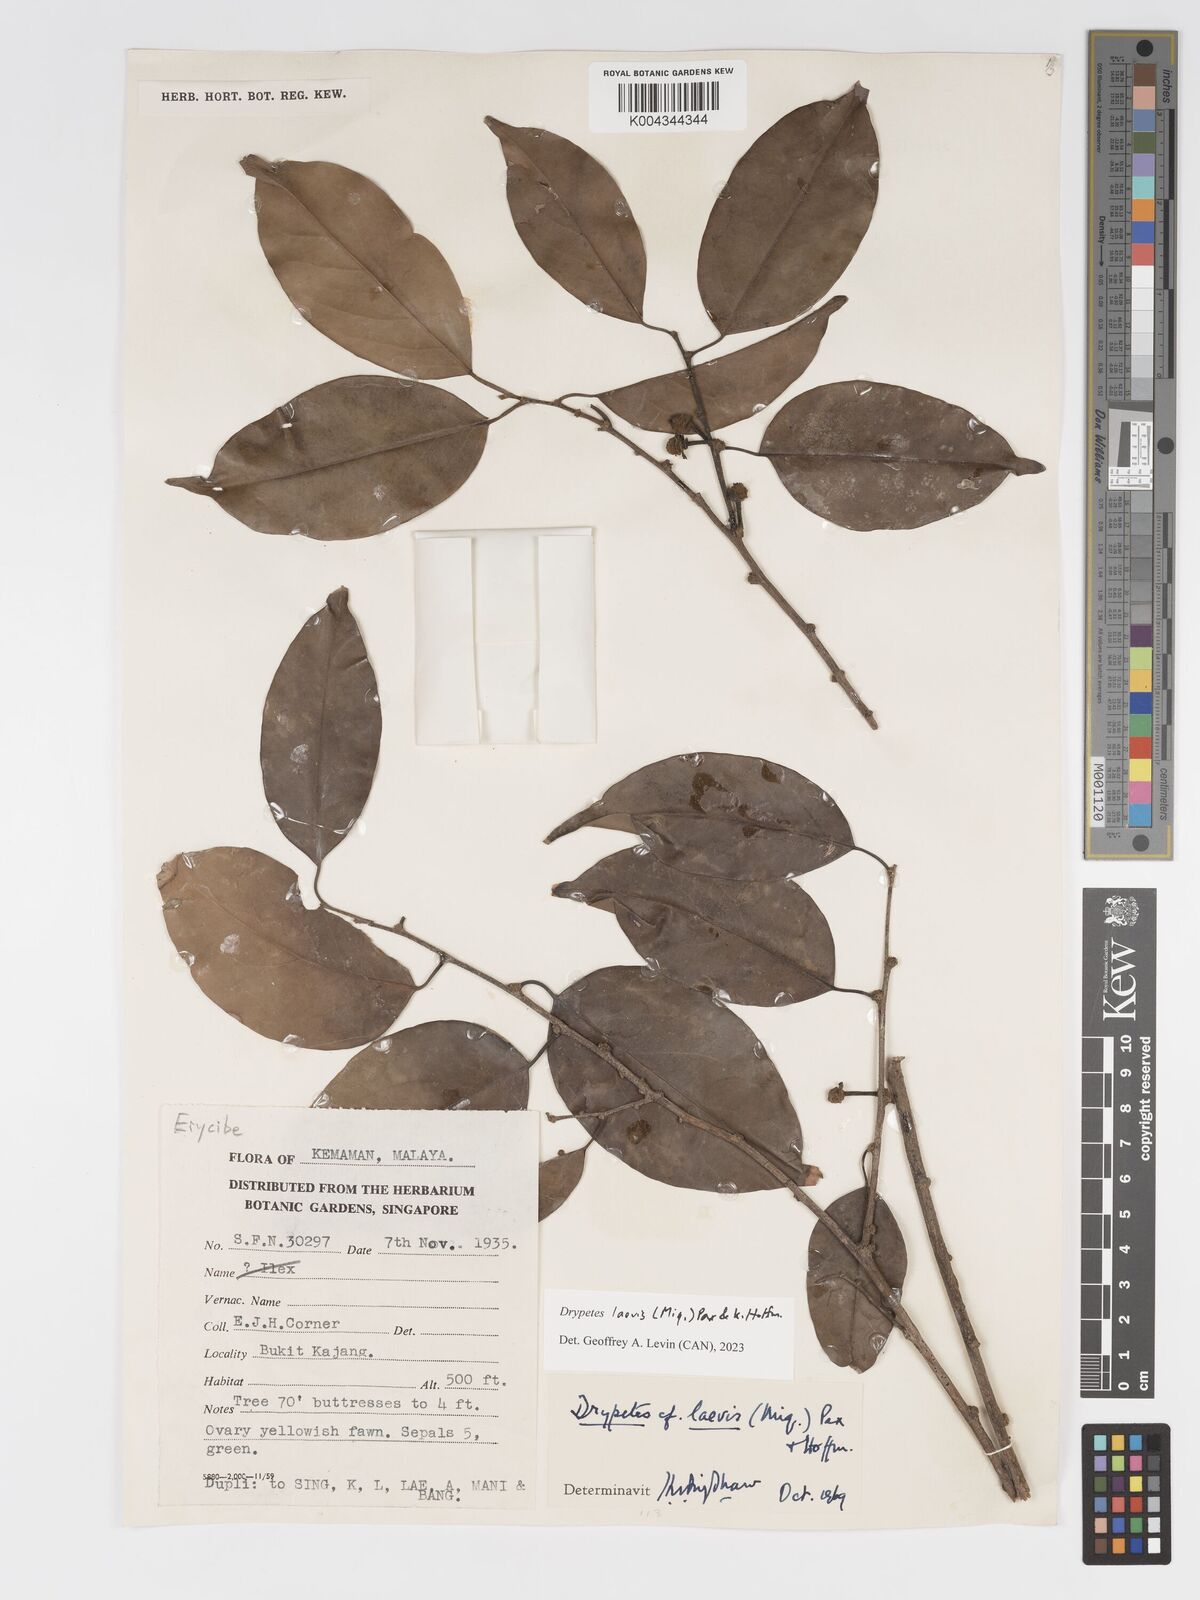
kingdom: Plantae
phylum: Tracheophyta
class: Magnoliopsida
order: Malpighiales
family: Putranjivaceae
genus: Drypetes
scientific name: Drypetes laevis
